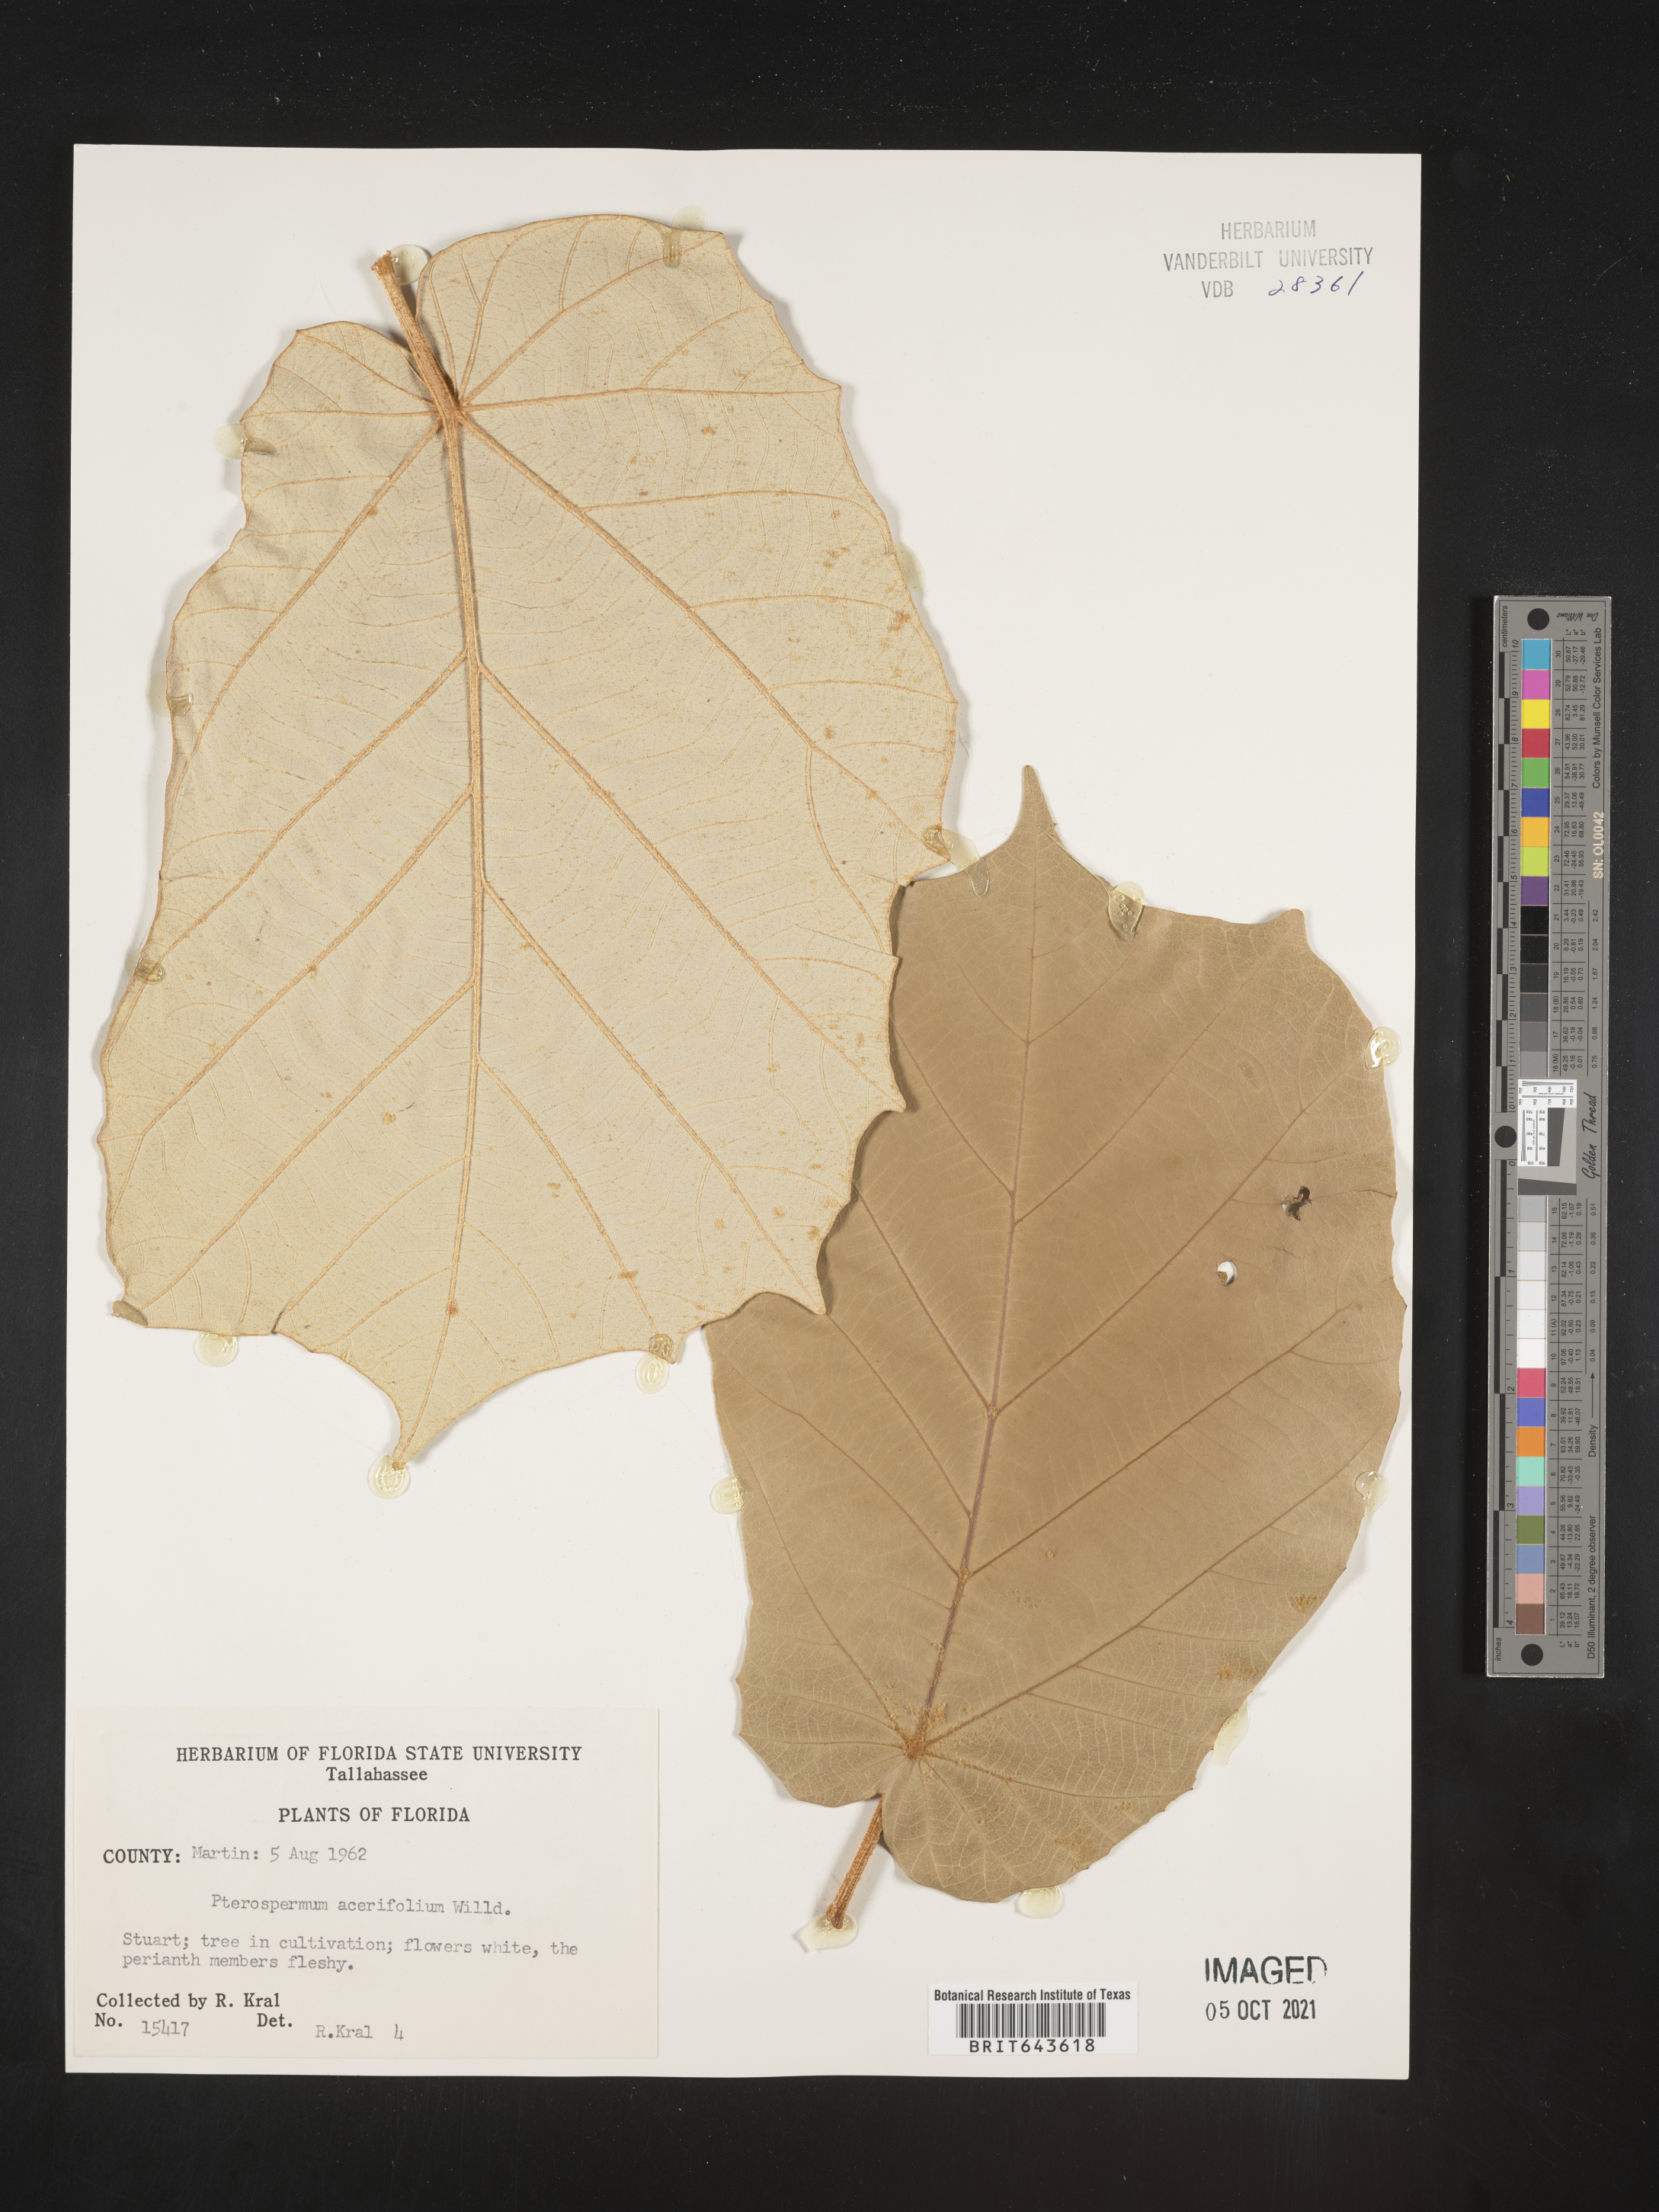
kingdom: Plantae
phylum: Tracheophyta
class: Magnoliopsida
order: Malvales
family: Malvaceae
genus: Pterospermum
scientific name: Pterospermum acerifolium
